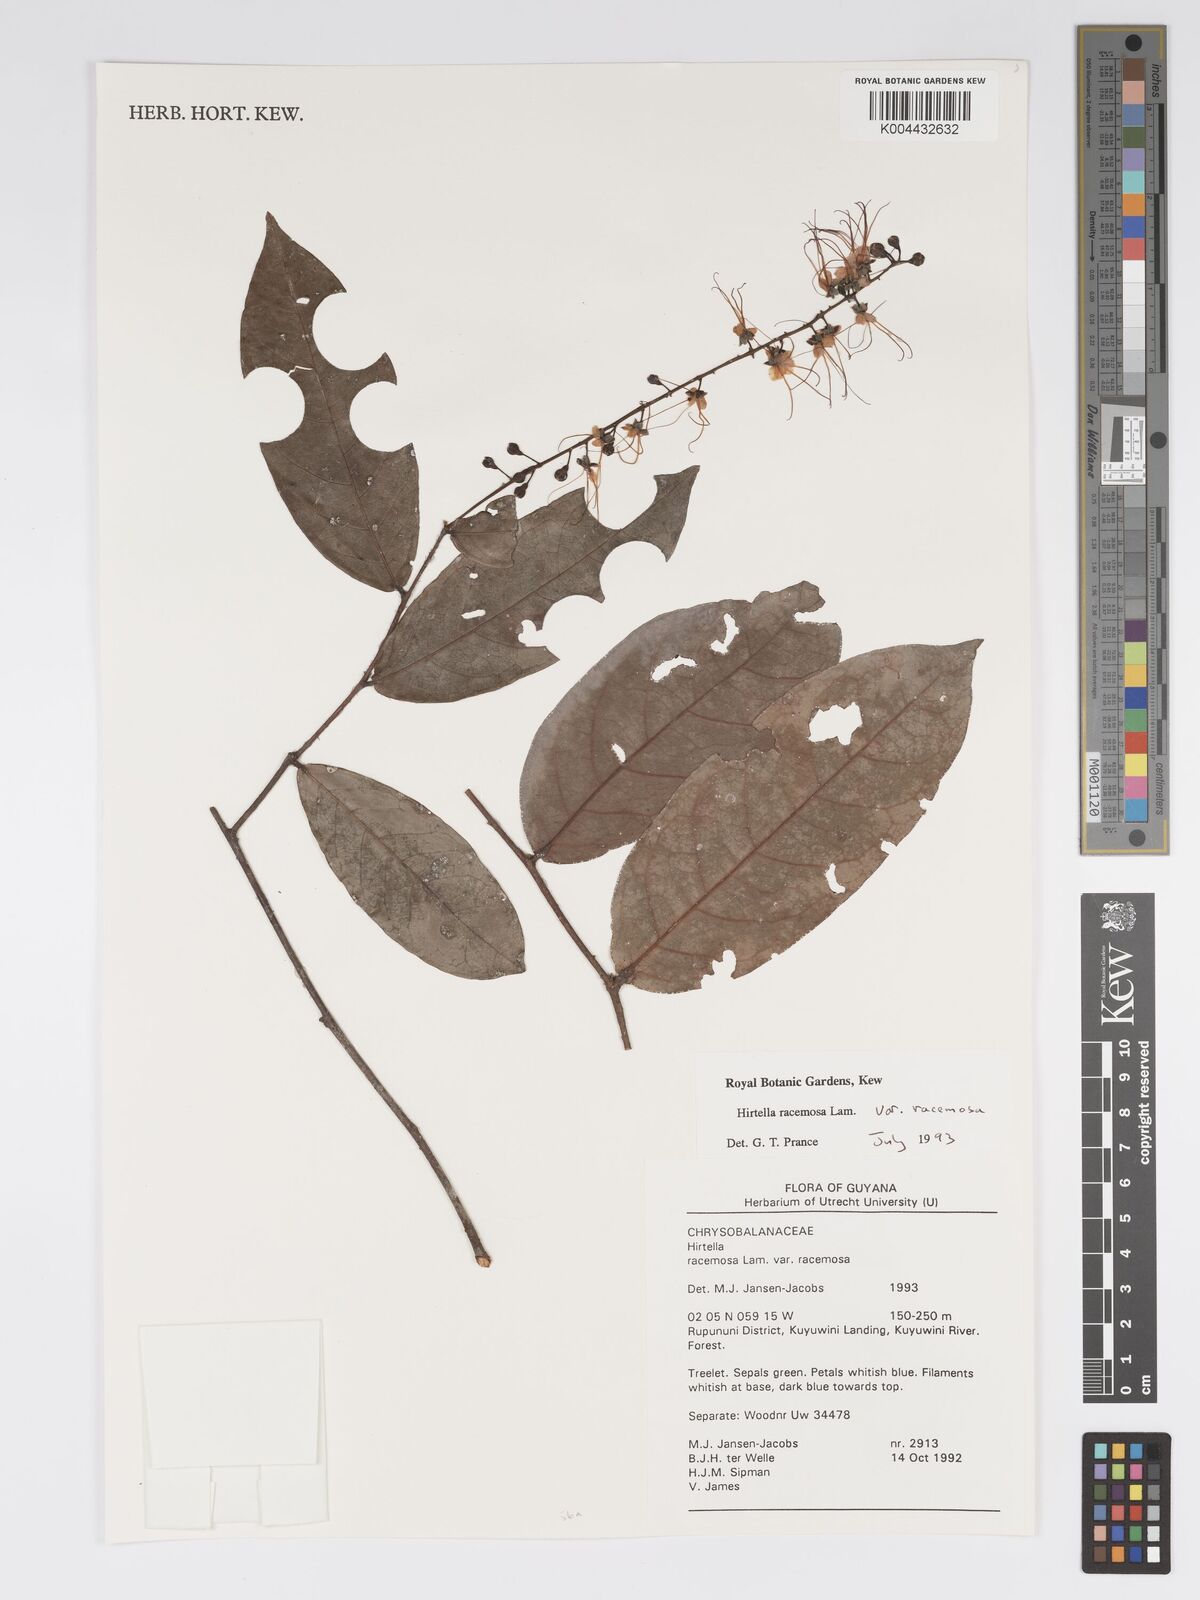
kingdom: Plantae
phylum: Tracheophyta
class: Magnoliopsida
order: Malpighiales
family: Chrysobalanaceae
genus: Hirtella
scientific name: Hirtella racemosa
